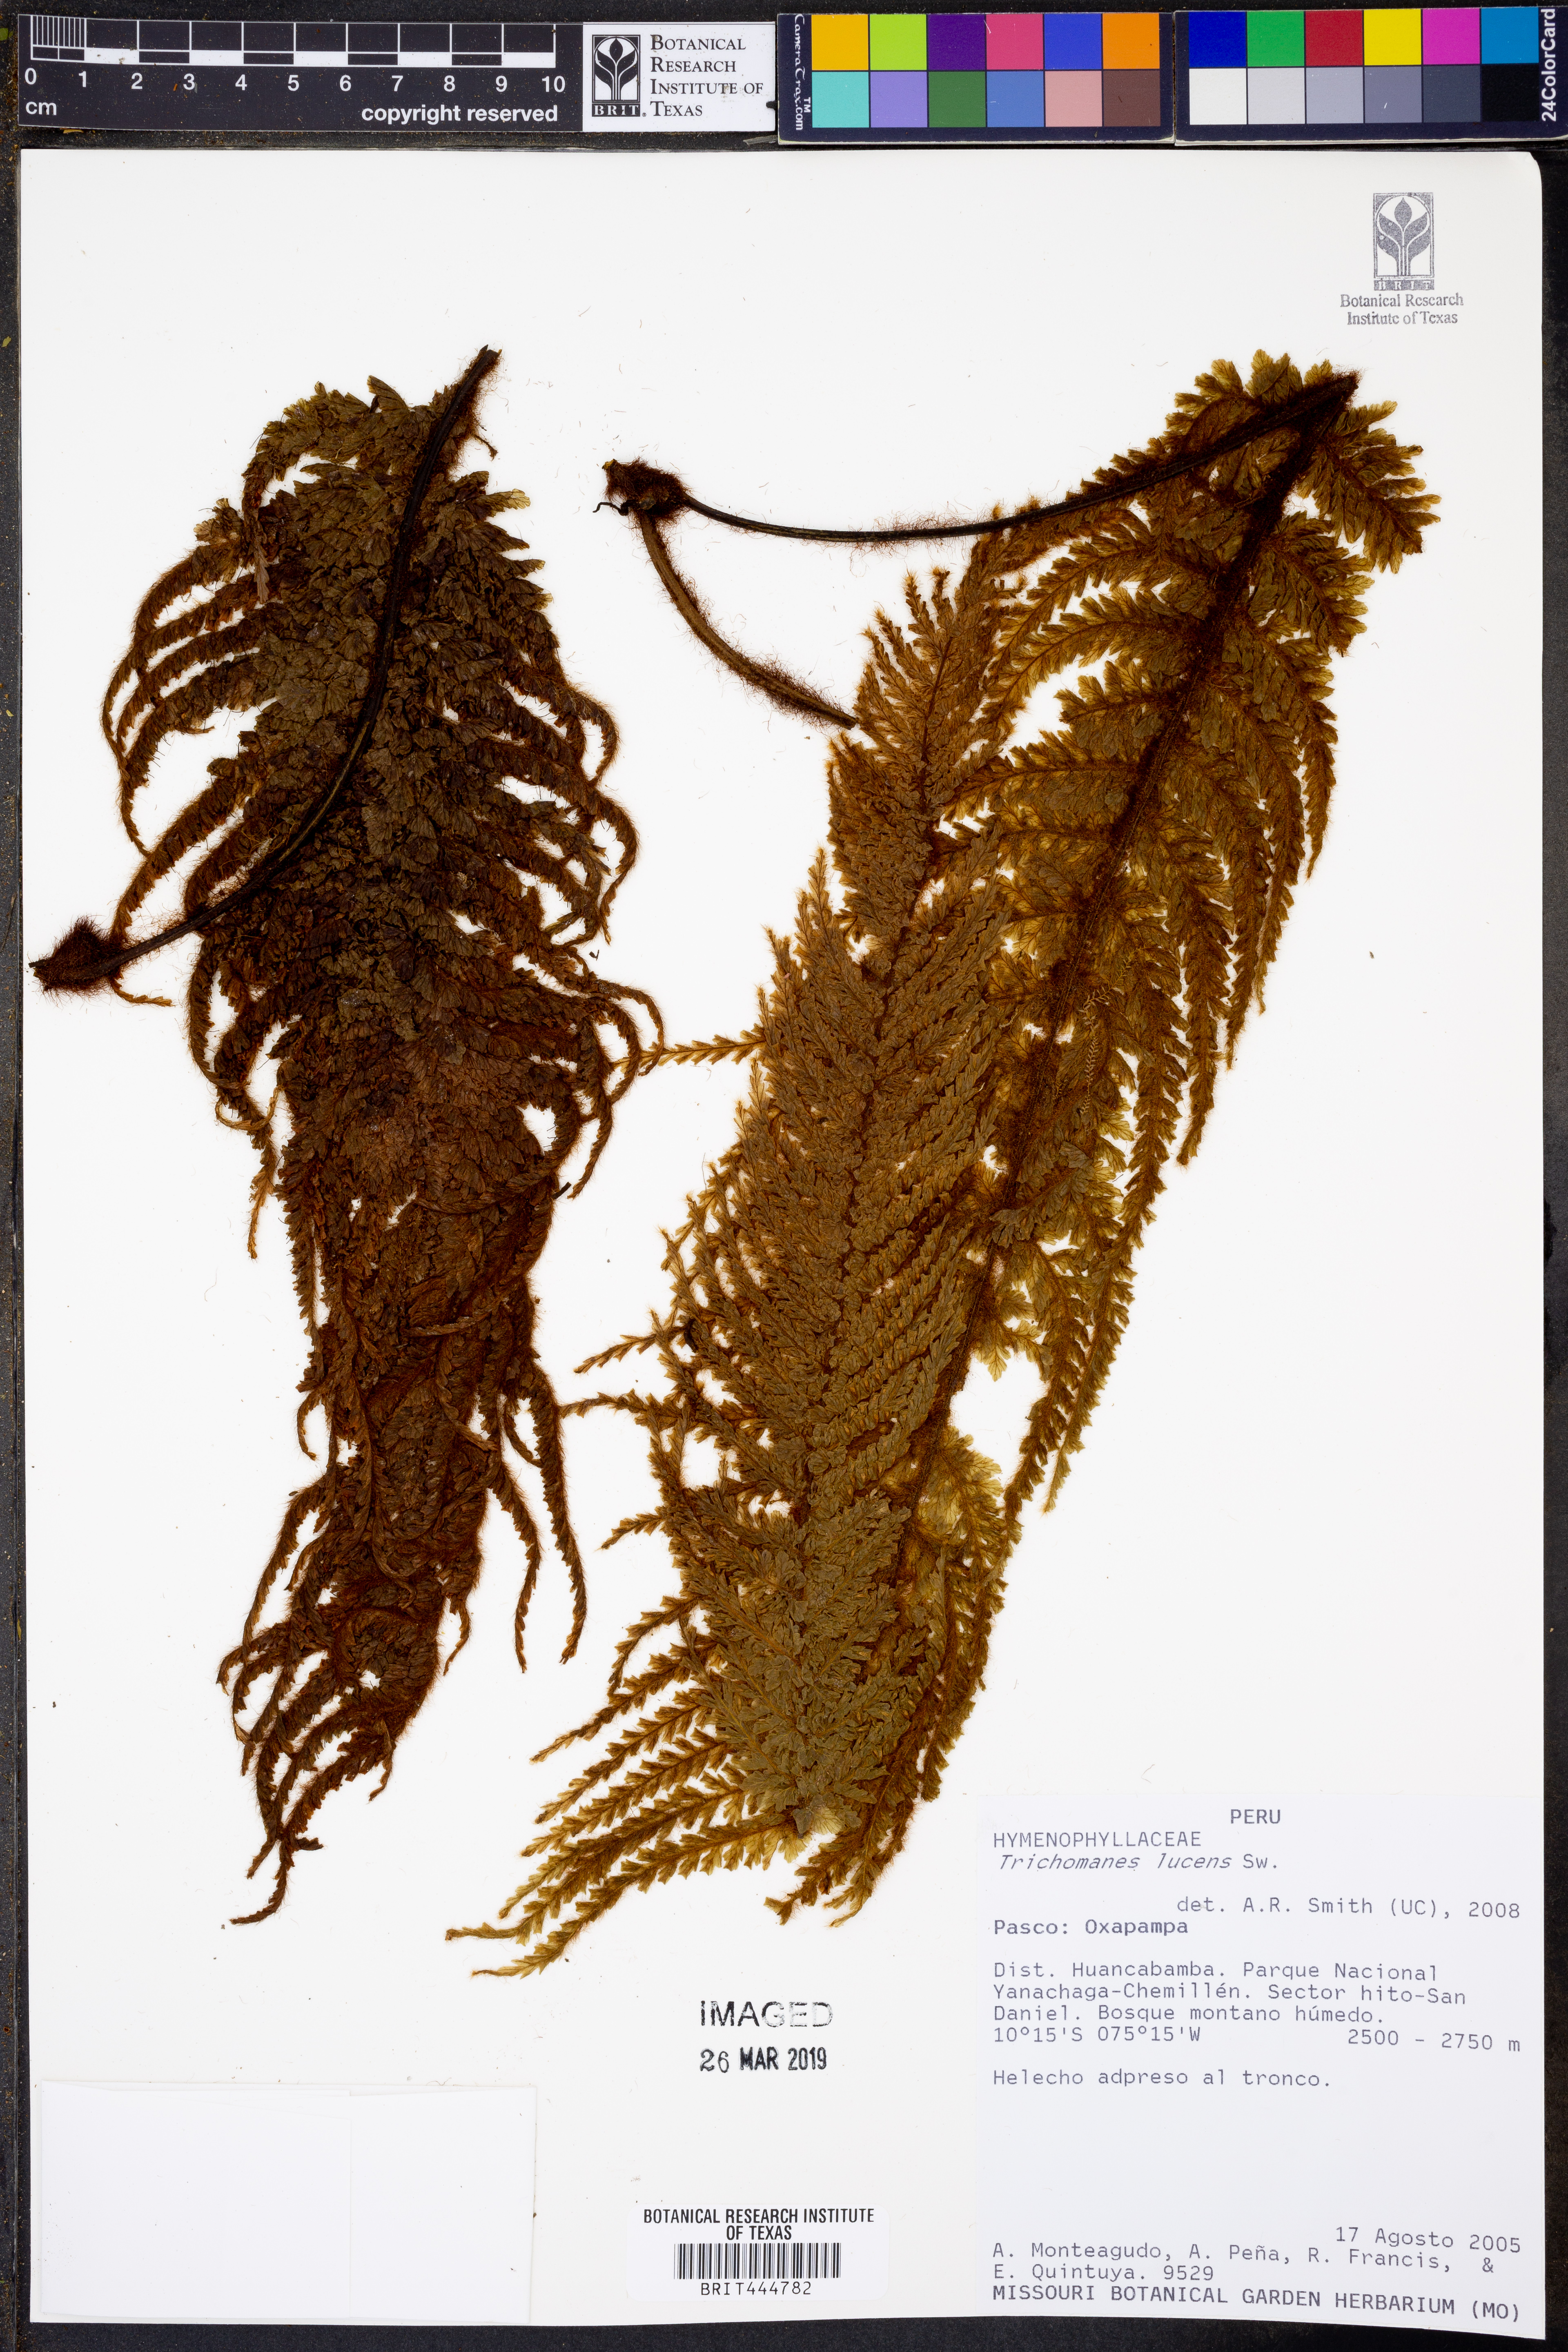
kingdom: Plantae
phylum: Tracheophyta
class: Polypodiopsida
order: Hymenophyllales
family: Hymenophyllaceae
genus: Trichomanes
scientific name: Trichomanes lucens
